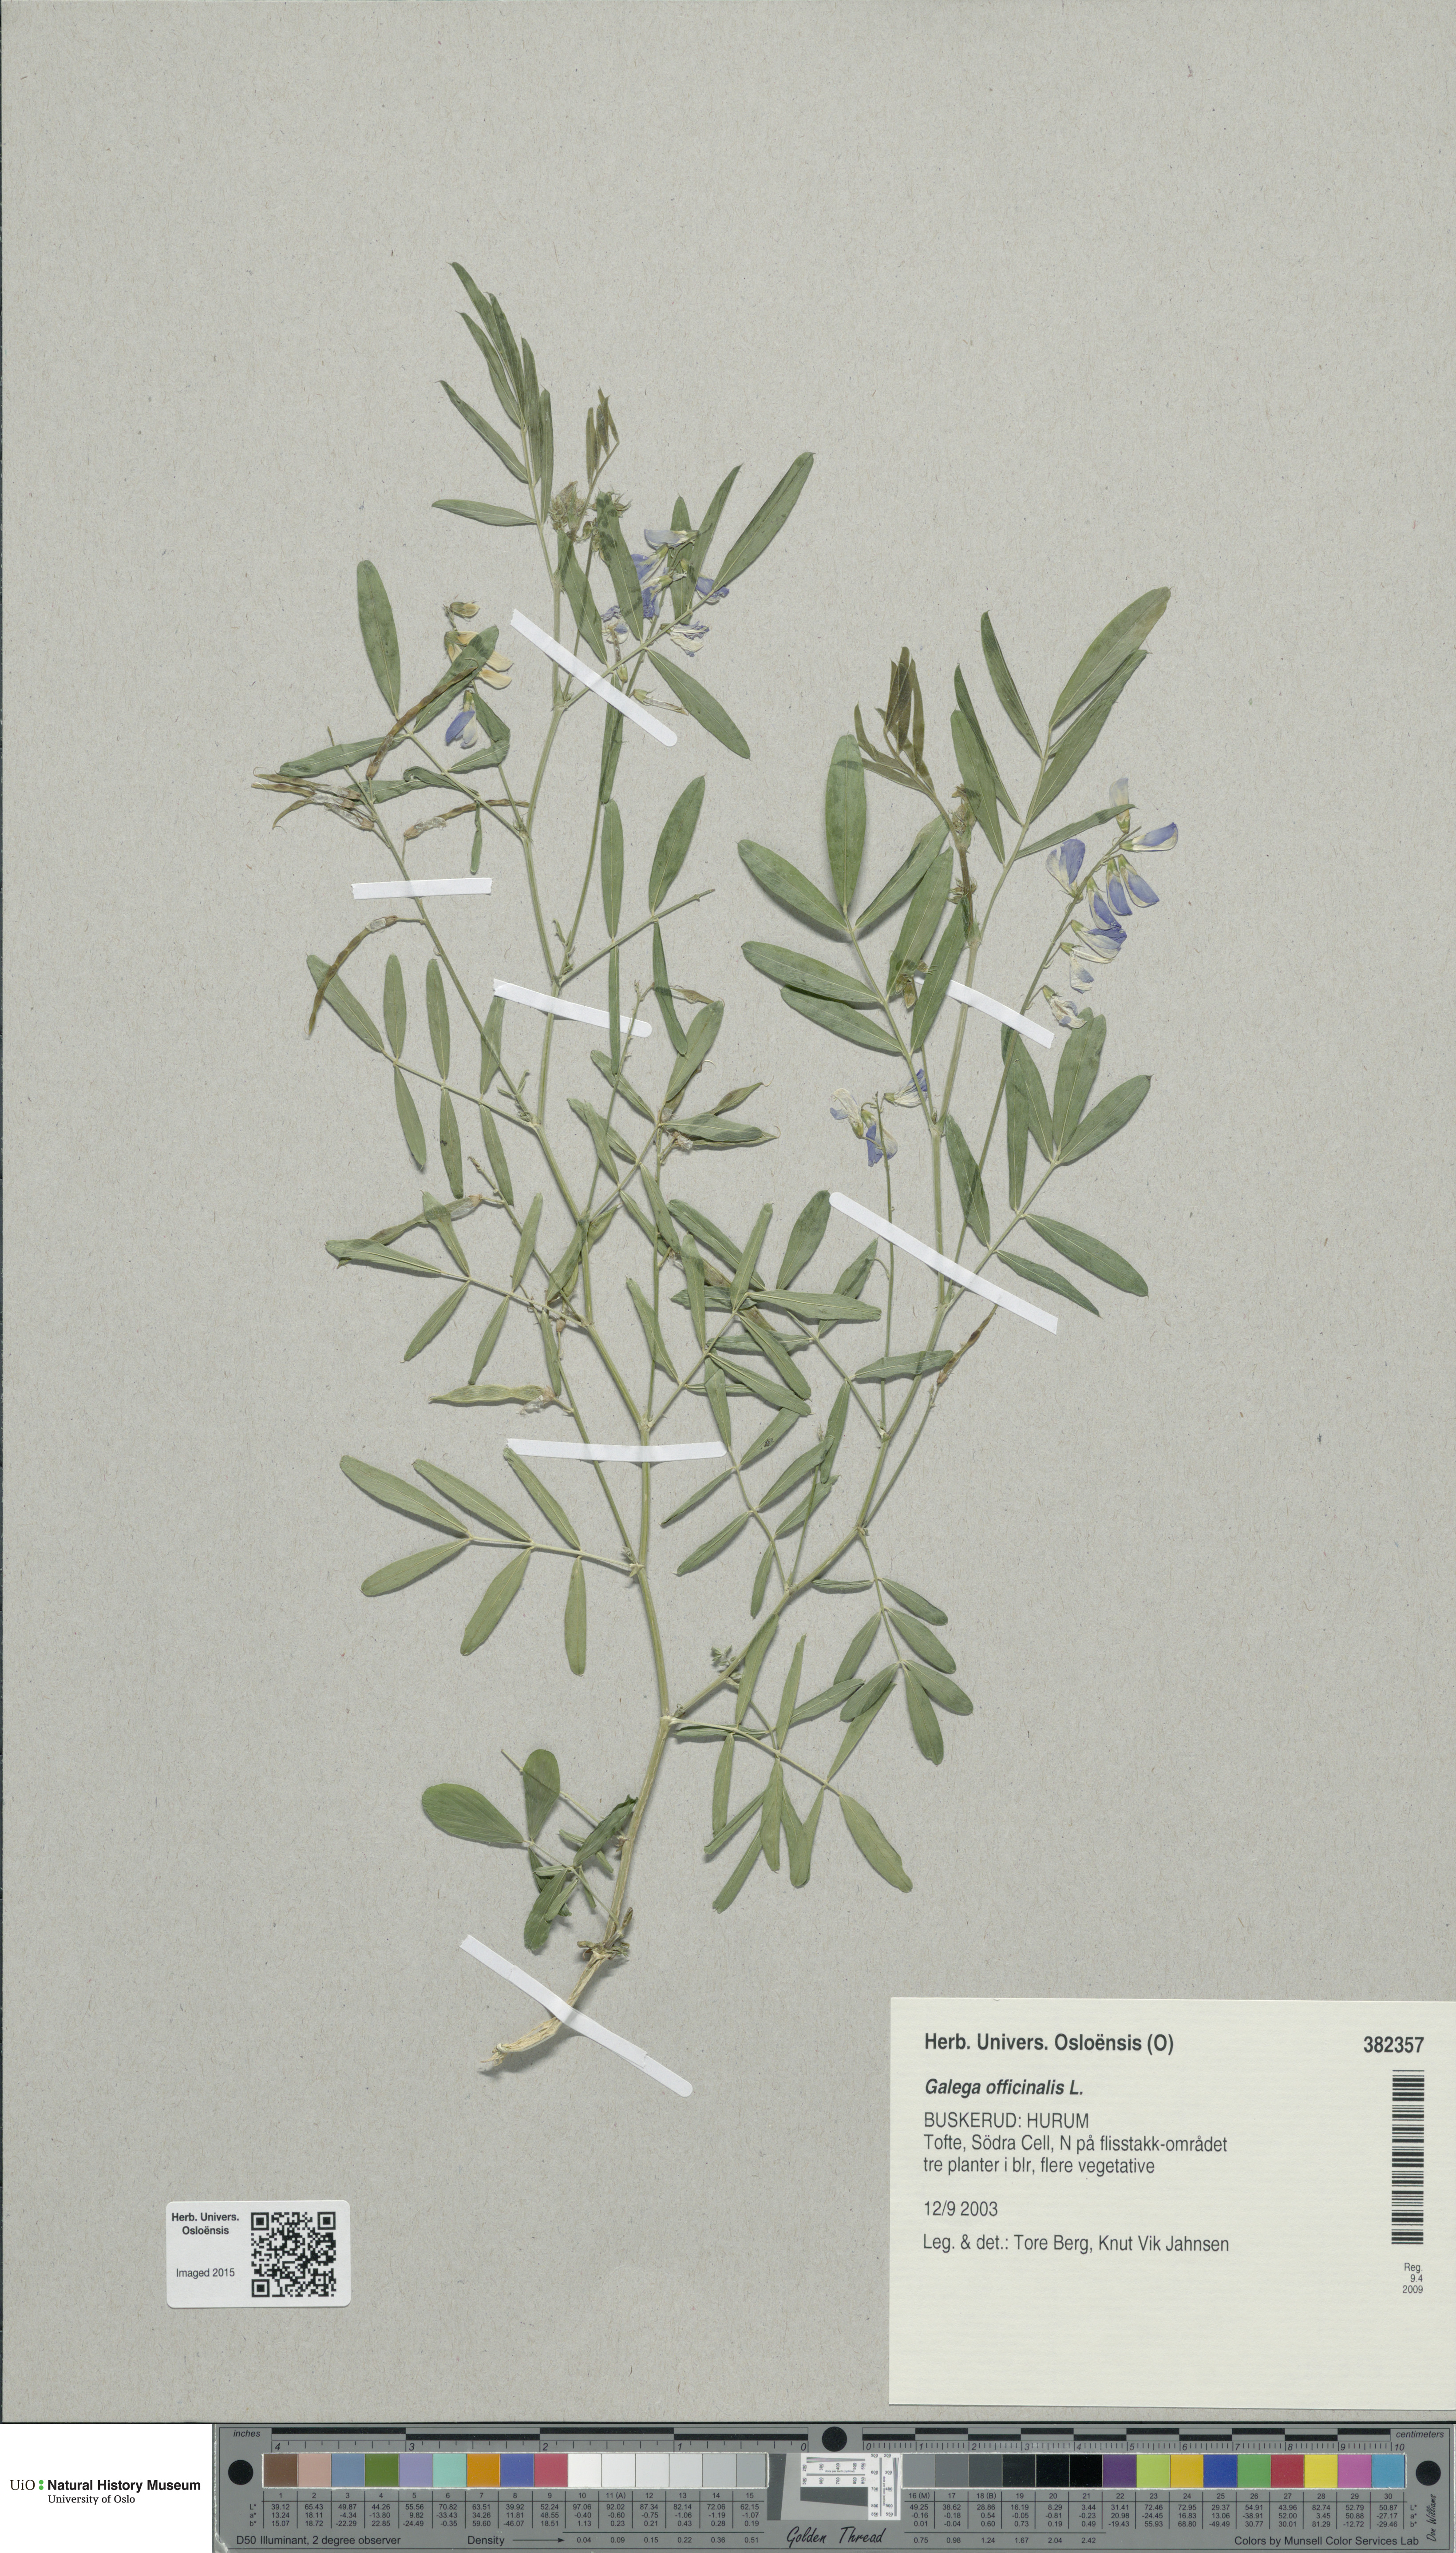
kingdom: Plantae
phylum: Tracheophyta
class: Magnoliopsida
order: Fabales
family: Fabaceae
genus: Galega
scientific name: Galega officinalis
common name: Goat's-rue
